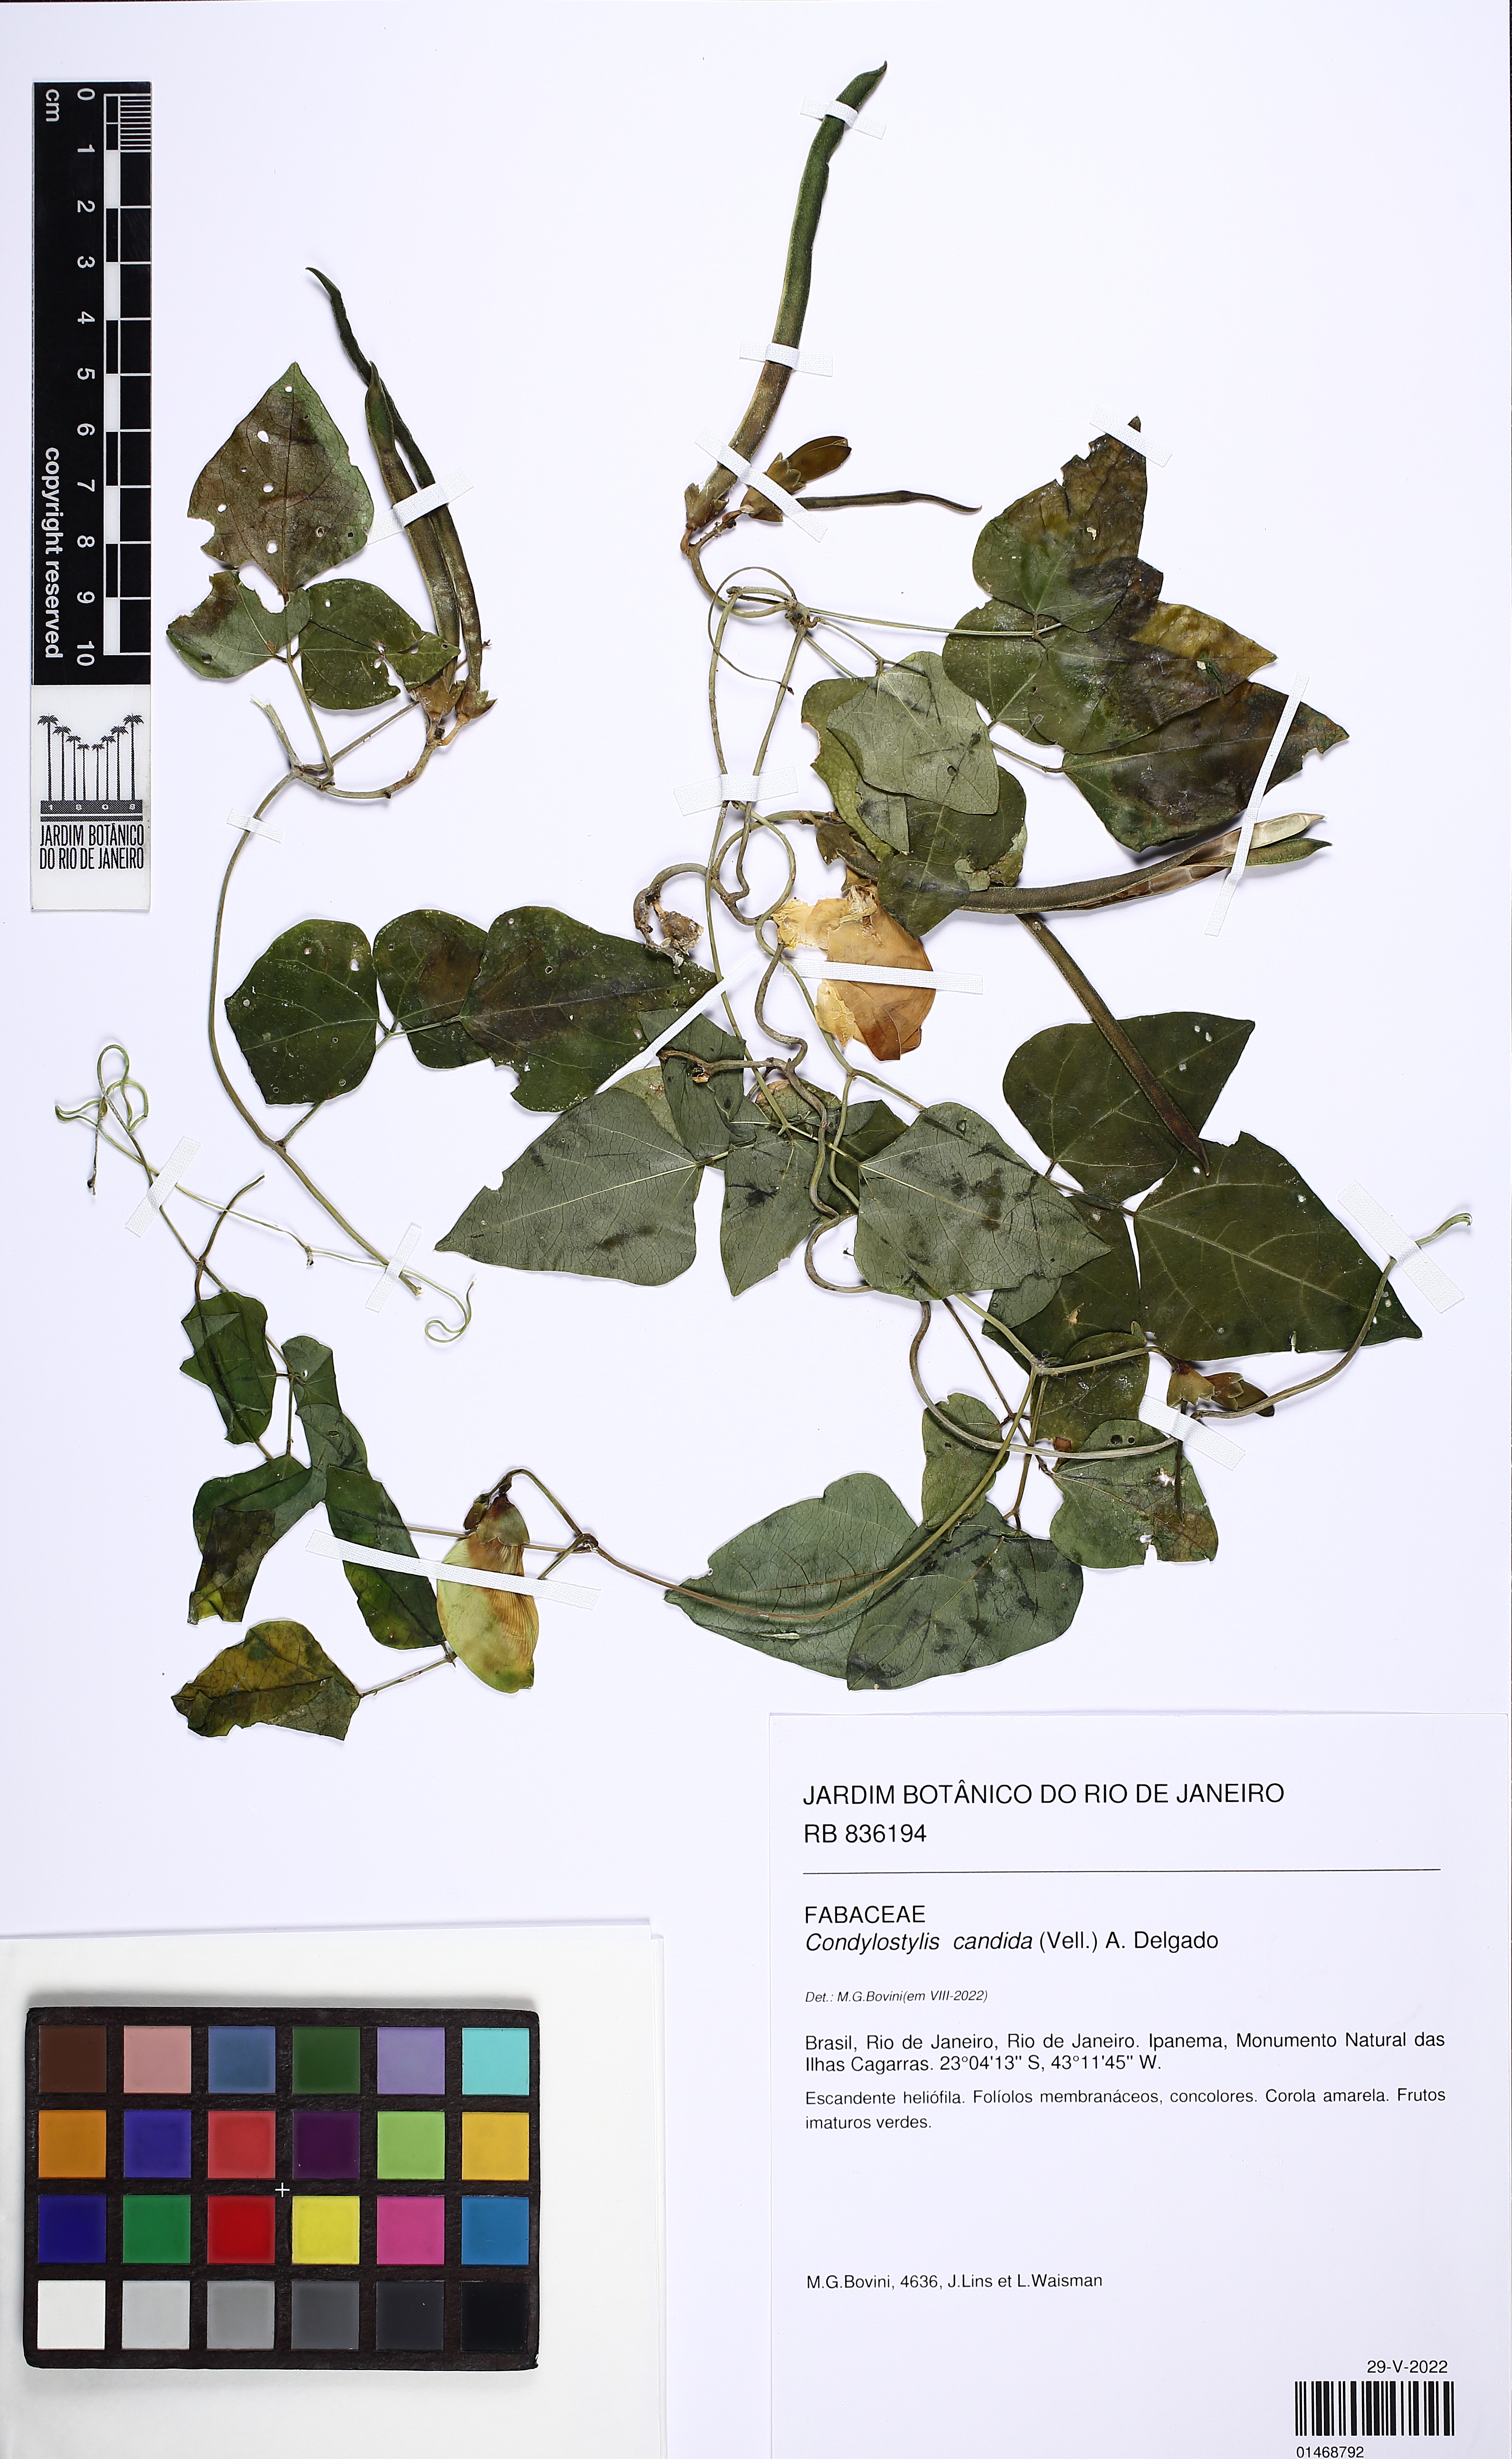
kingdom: Plantae
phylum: Tracheophyta
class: Magnoliopsida
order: Fabales
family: Fabaceae
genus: Condylostylis
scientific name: Condylostylis candida
